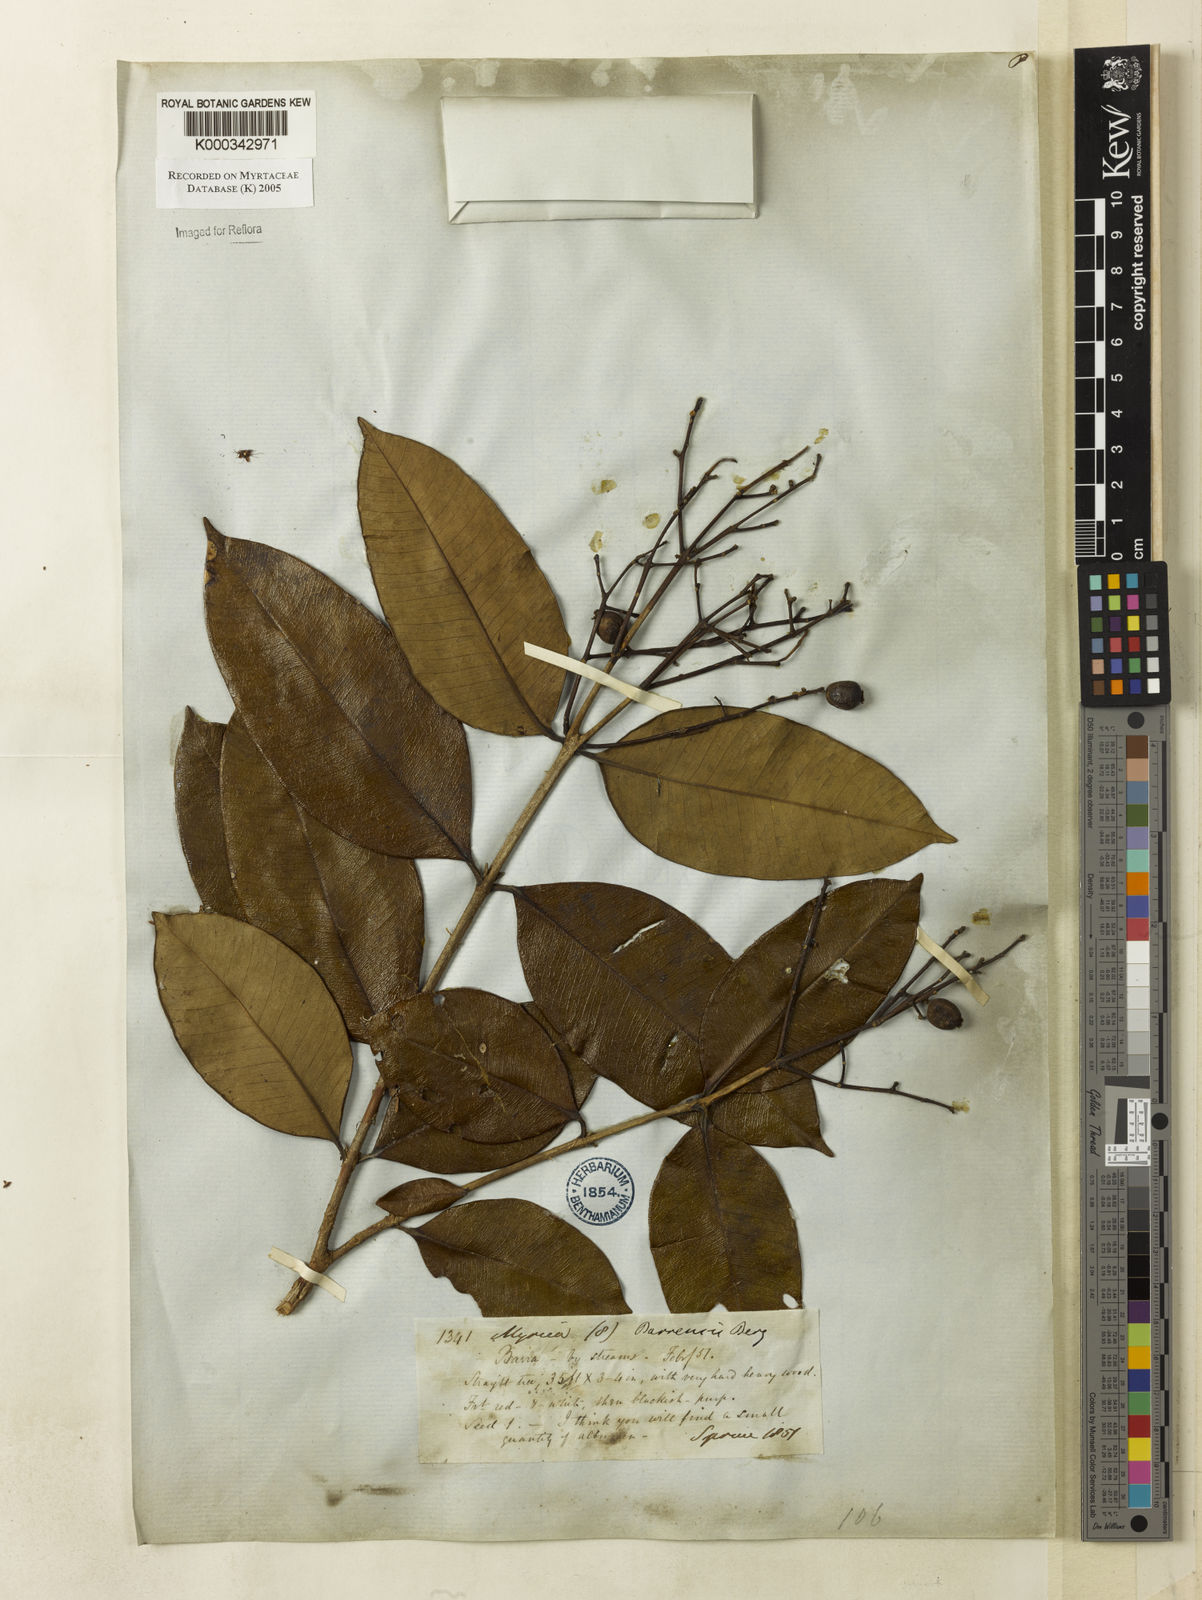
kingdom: Plantae
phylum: Tracheophyta
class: Magnoliopsida
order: Myrtales
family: Myrtaceae
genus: Myrcia
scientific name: Myrcia splendens
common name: Surinam cherry
